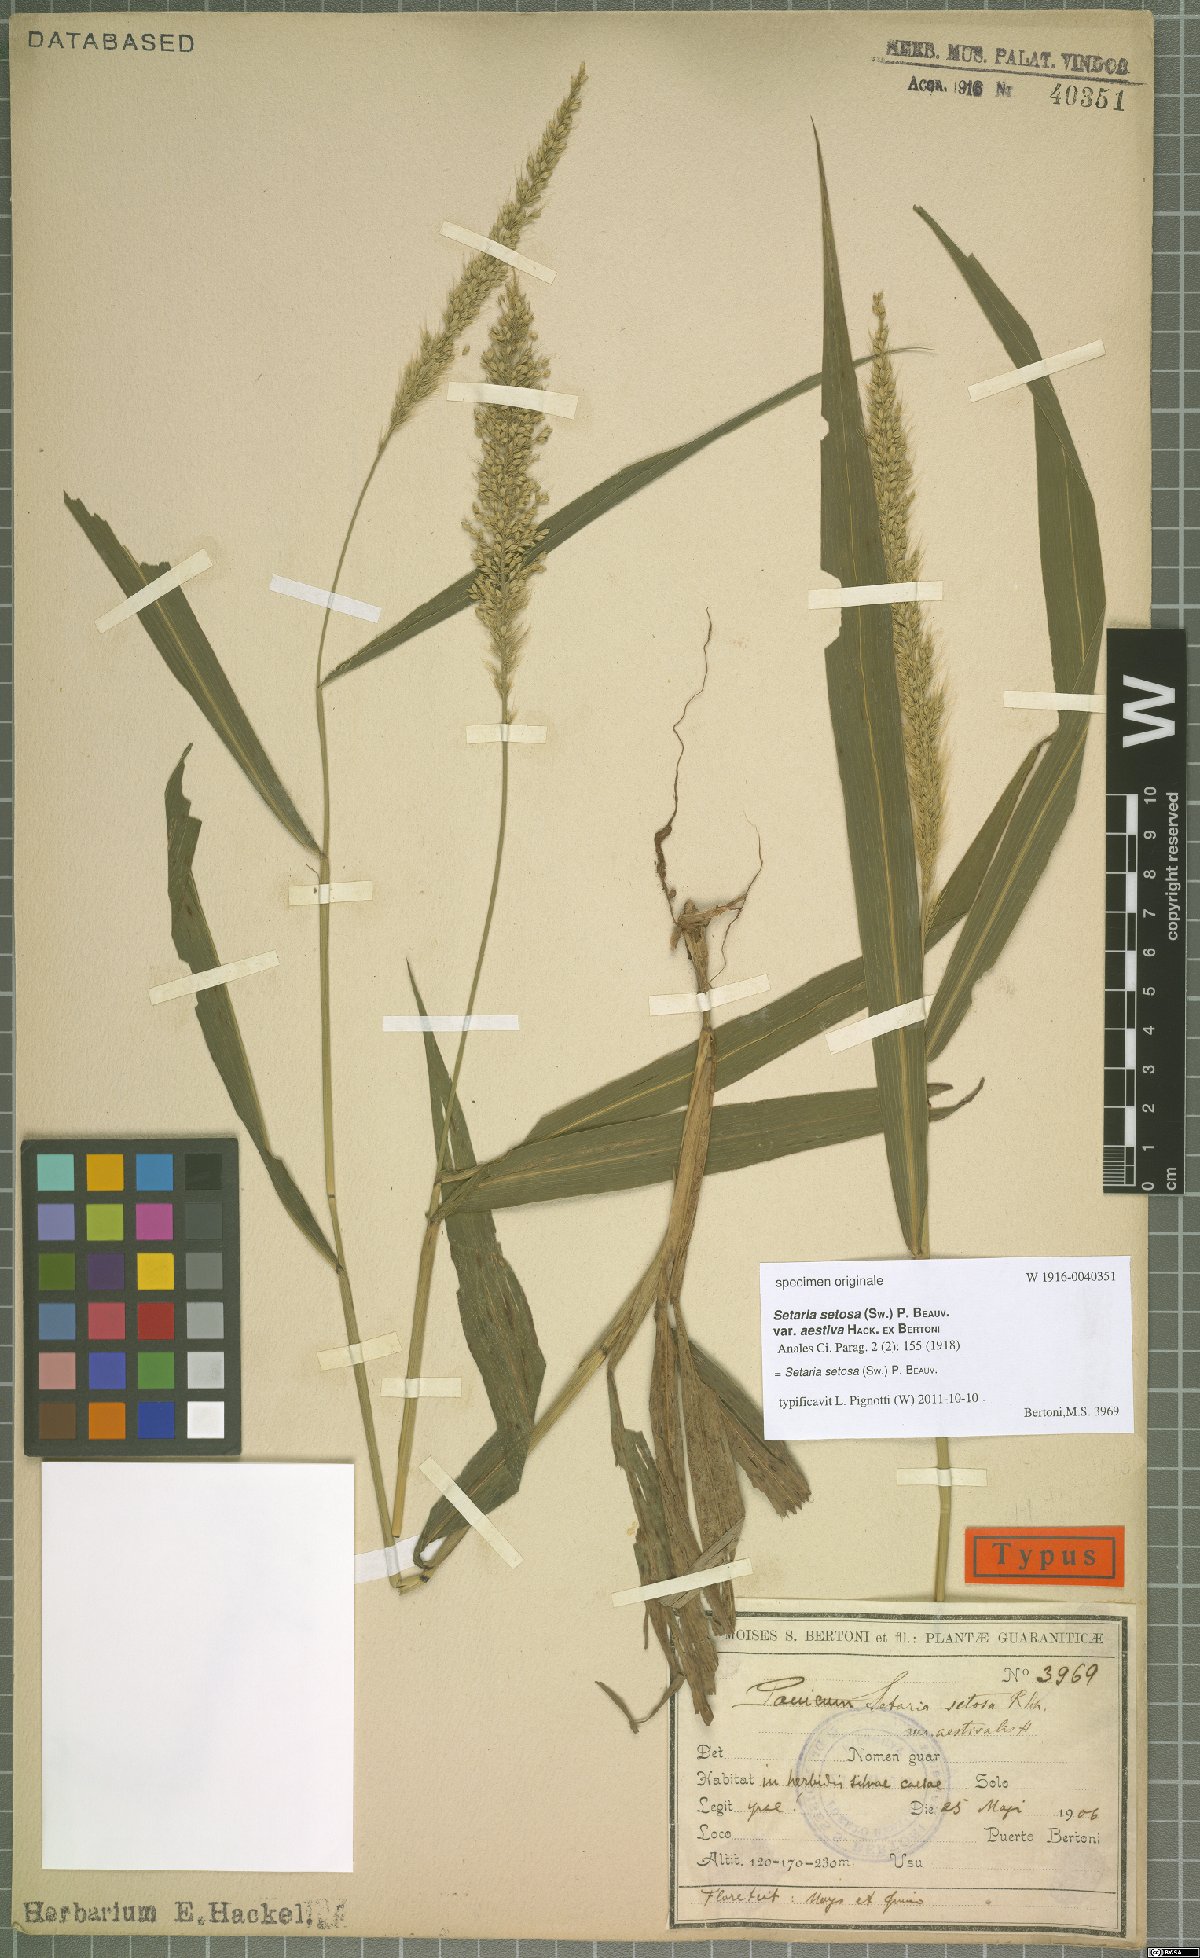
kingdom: Plantae
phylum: Tracheophyta
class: Liliopsida
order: Poales
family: Poaceae
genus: Setaria
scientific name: Setaria setosa
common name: West indies bristle grass
